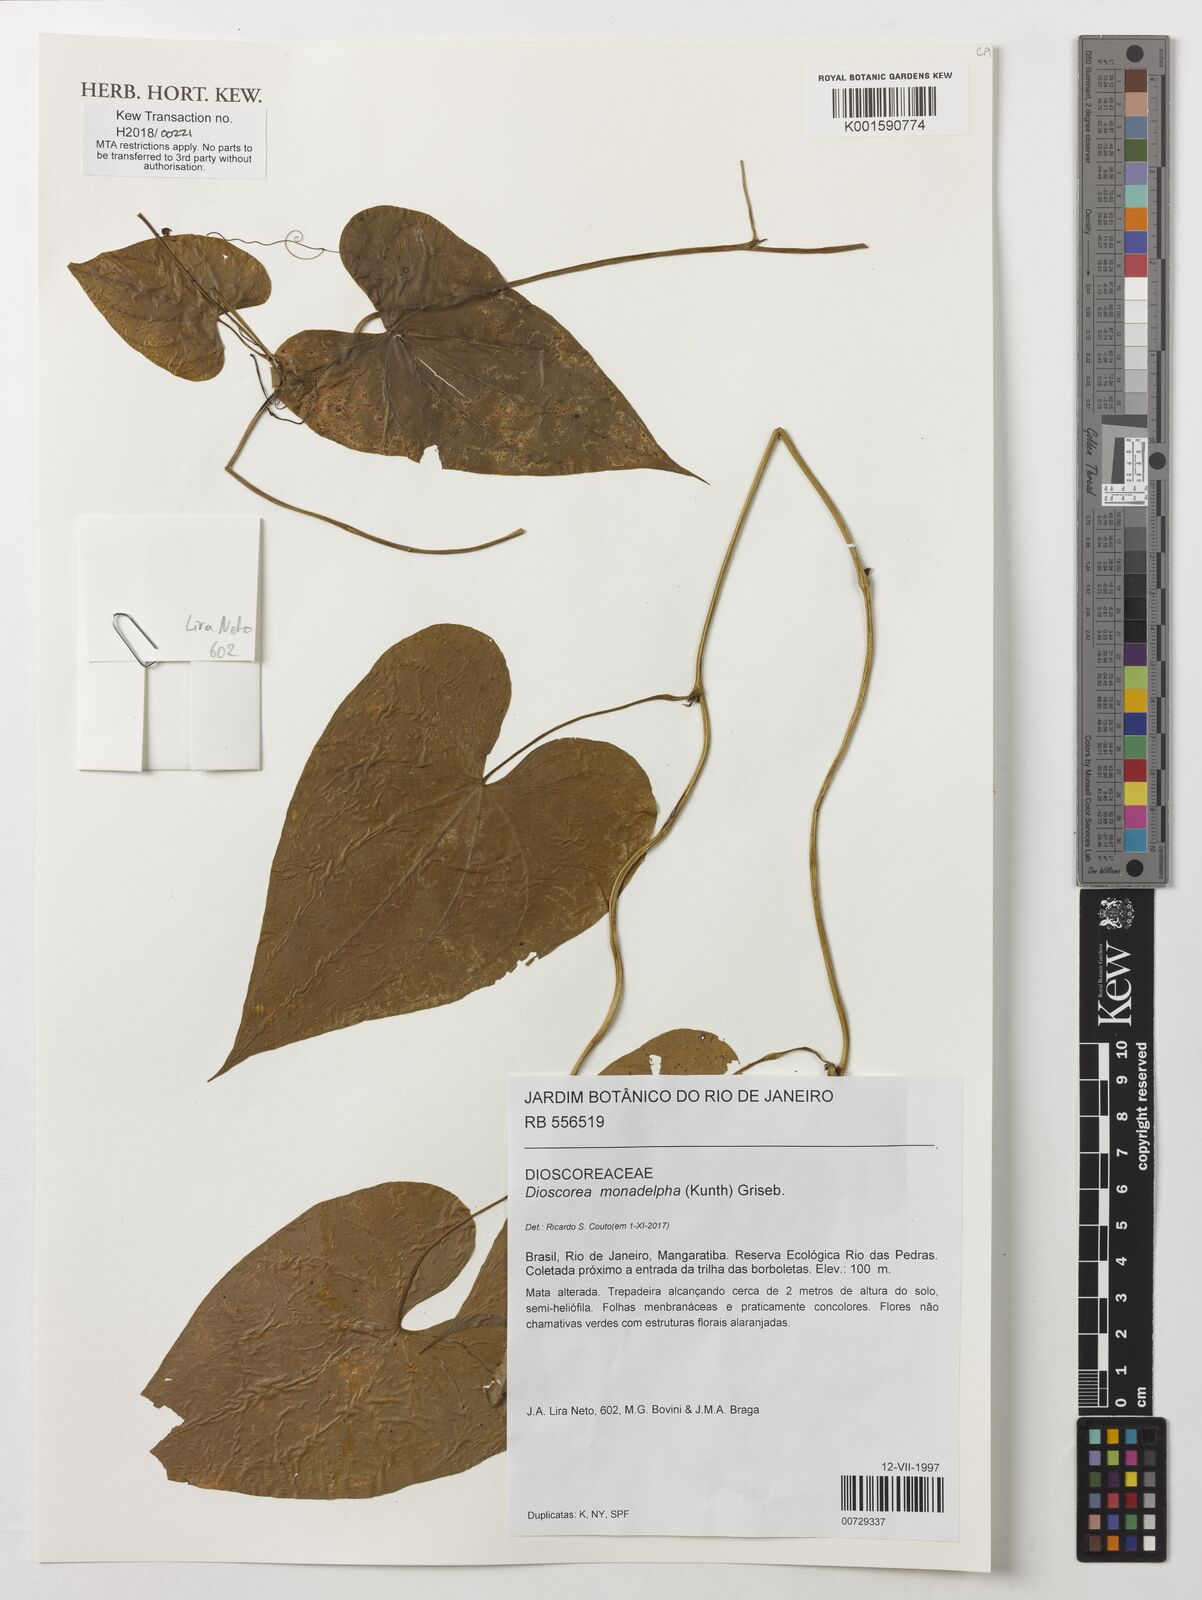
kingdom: Plantae
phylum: Tracheophyta
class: Liliopsida
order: Dioscoreales
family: Dioscoreaceae
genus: Dioscorea
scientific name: Dioscorea monadelpha
